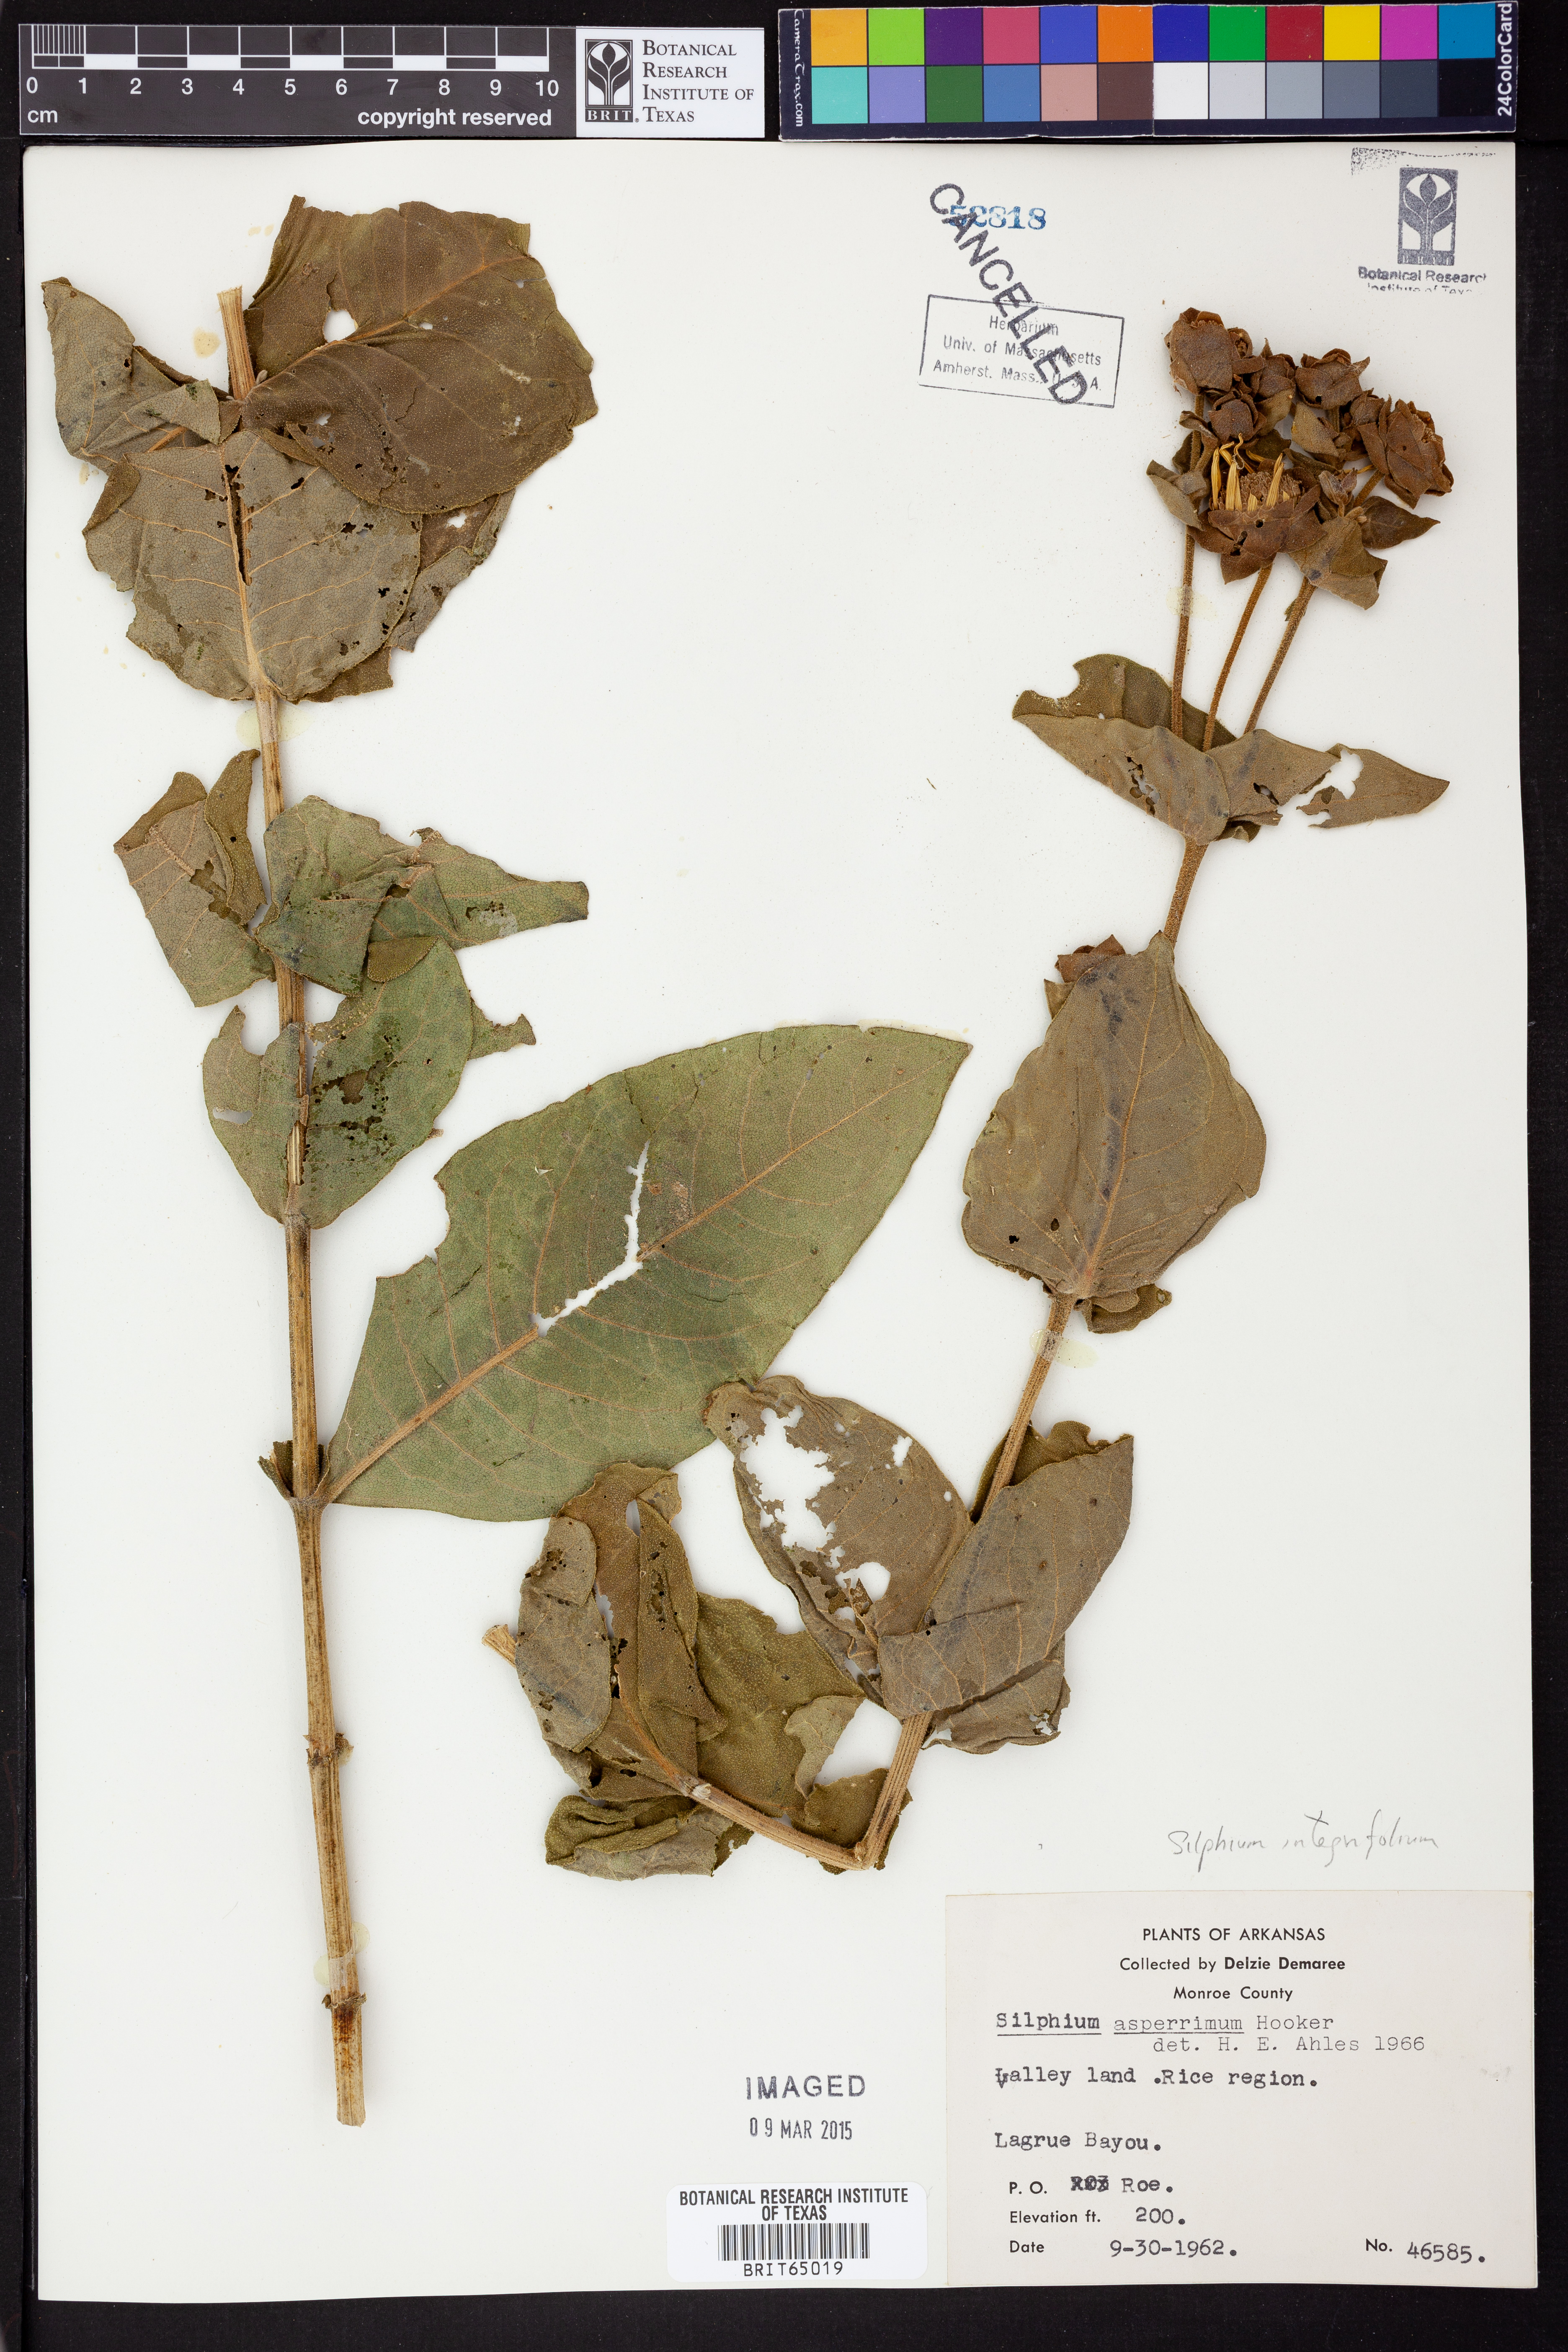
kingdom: Plantae
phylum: Tracheophyta
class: Magnoliopsida
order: Asterales
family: Asteraceae
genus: Silphium
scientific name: Silphium asperrimum
